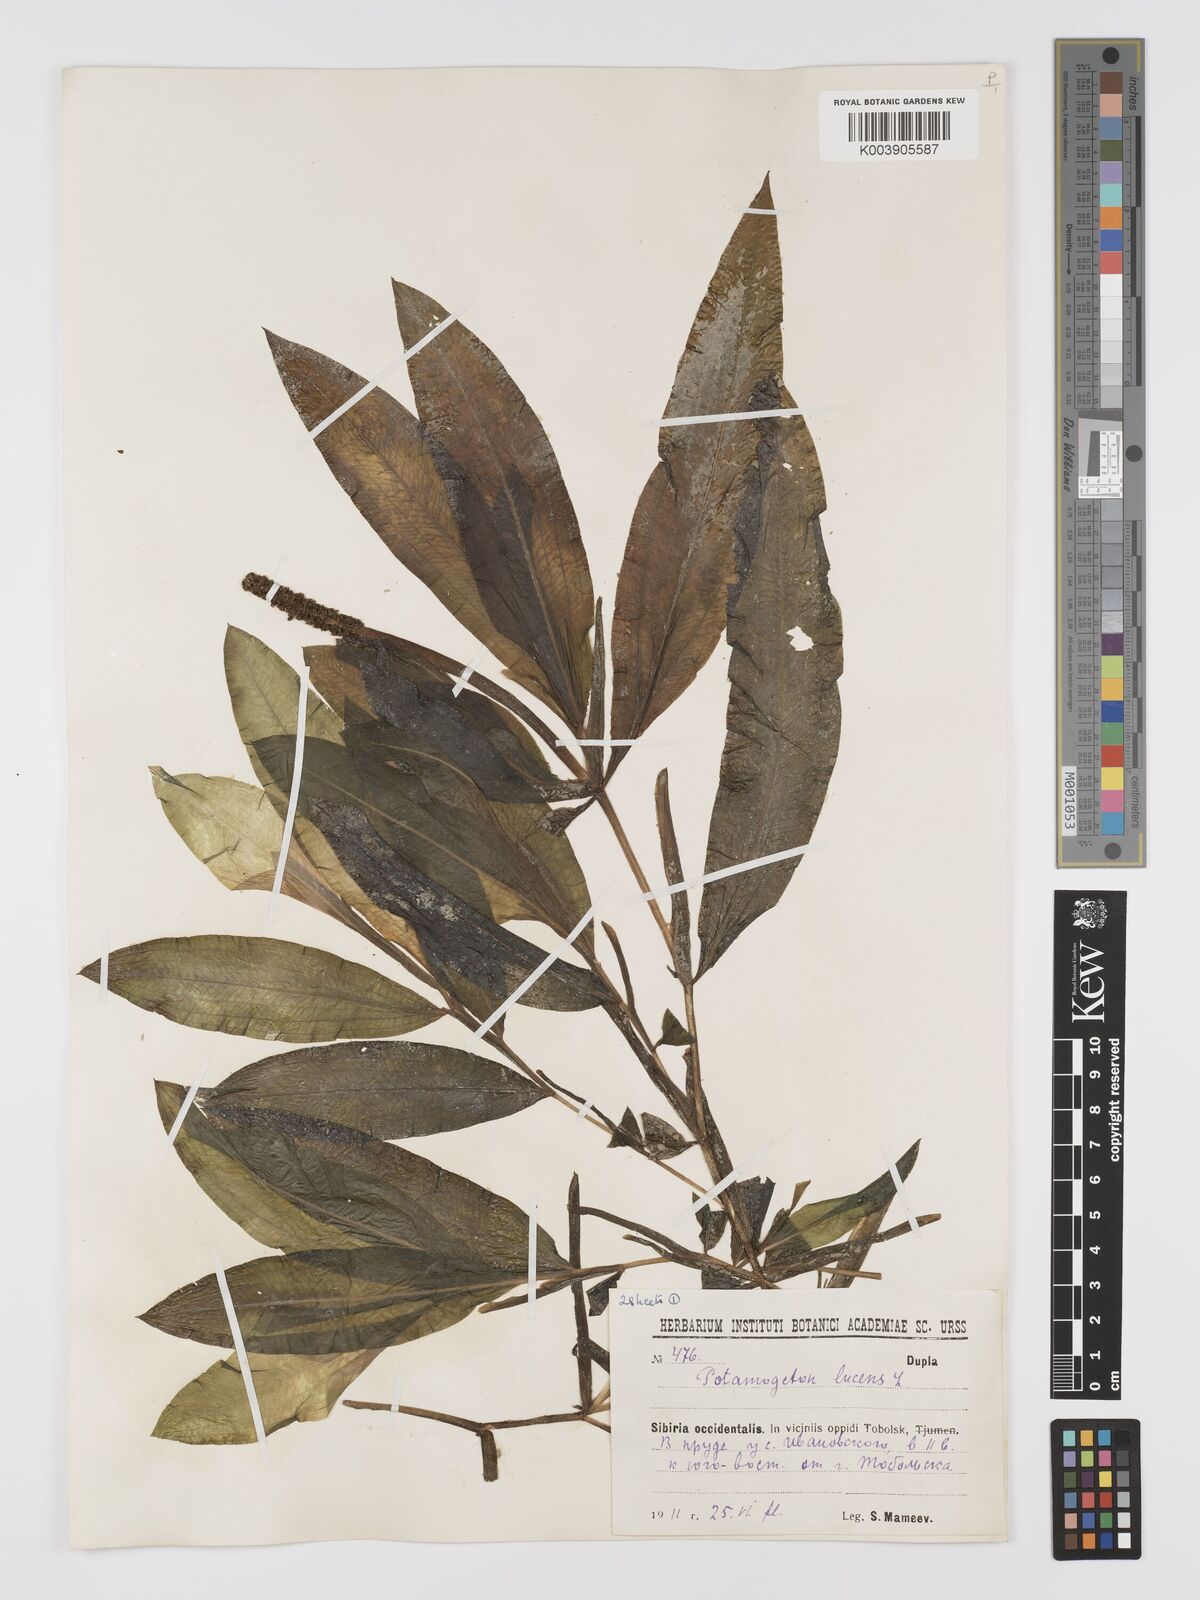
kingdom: Plantae
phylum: Tracheophyta
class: Liliopsida
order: Alismatales
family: Potamogetonaceae
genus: Potamogeton
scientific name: Potamogeton lucens
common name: Shining pondweed
